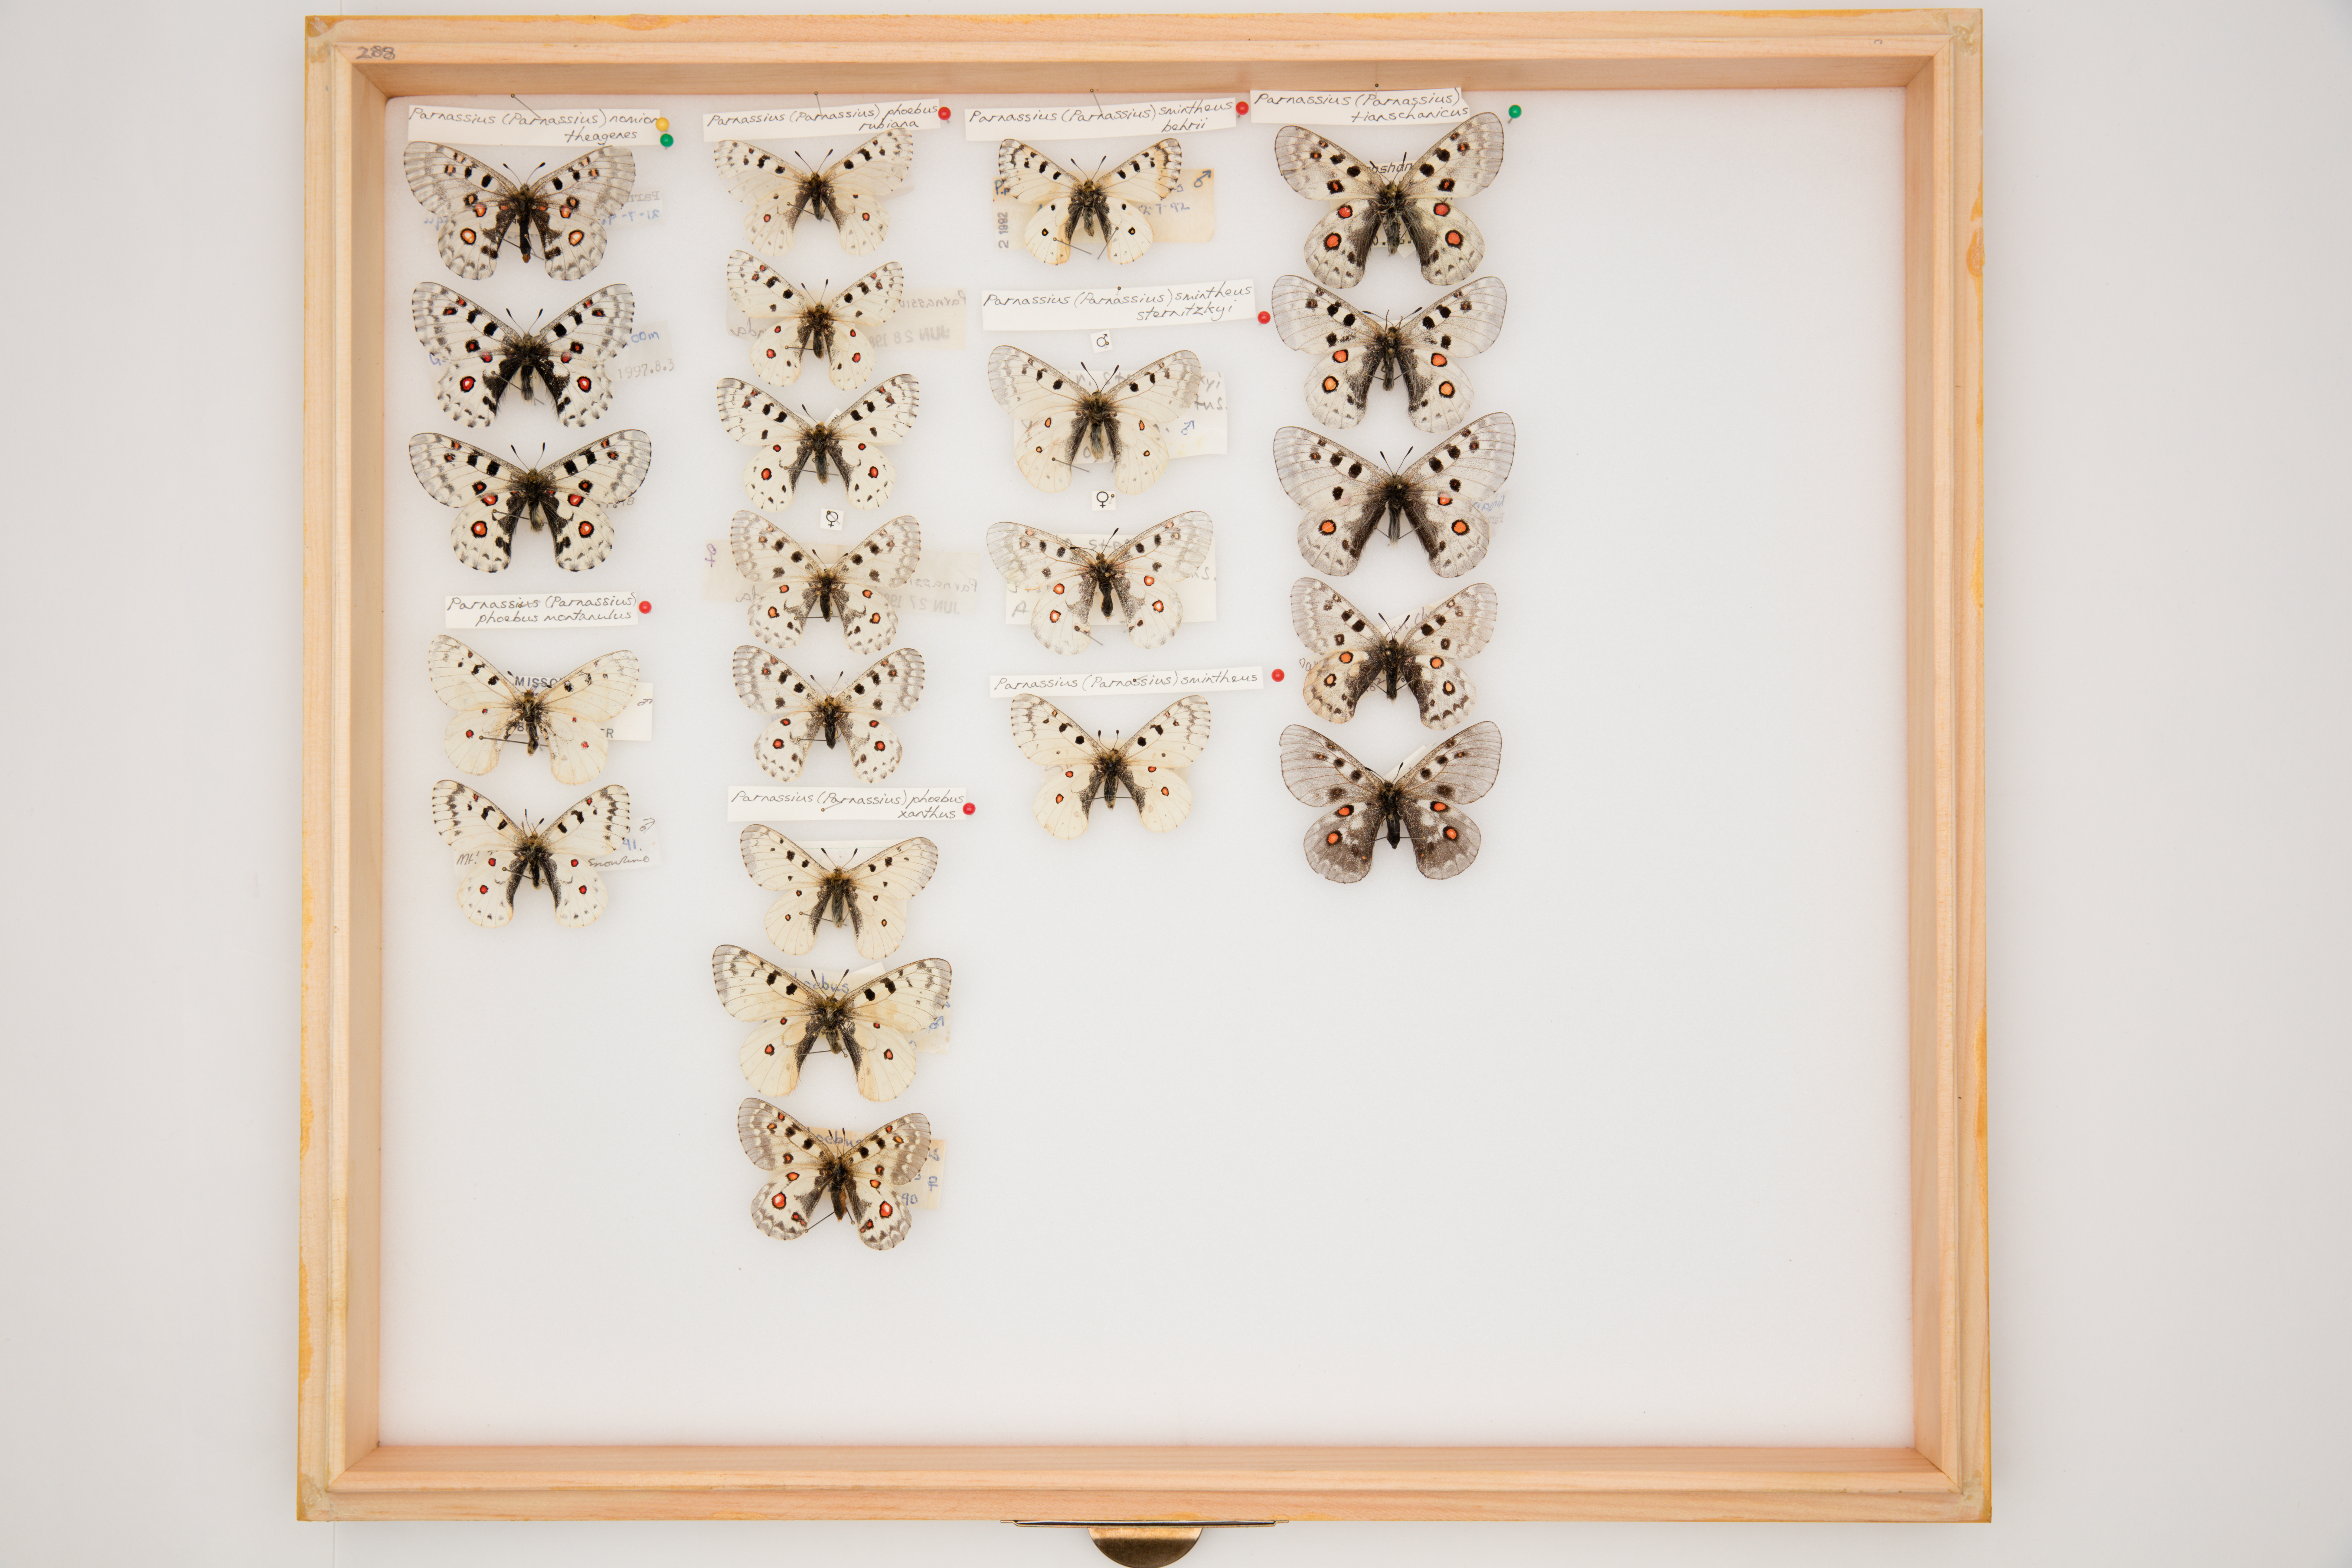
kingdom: Animalia
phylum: Arthropoda
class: Insecta
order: Lepidoptera
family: Papilionidae
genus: Parnassius
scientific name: Parnassius tianschanicus
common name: Large keeled apollo
